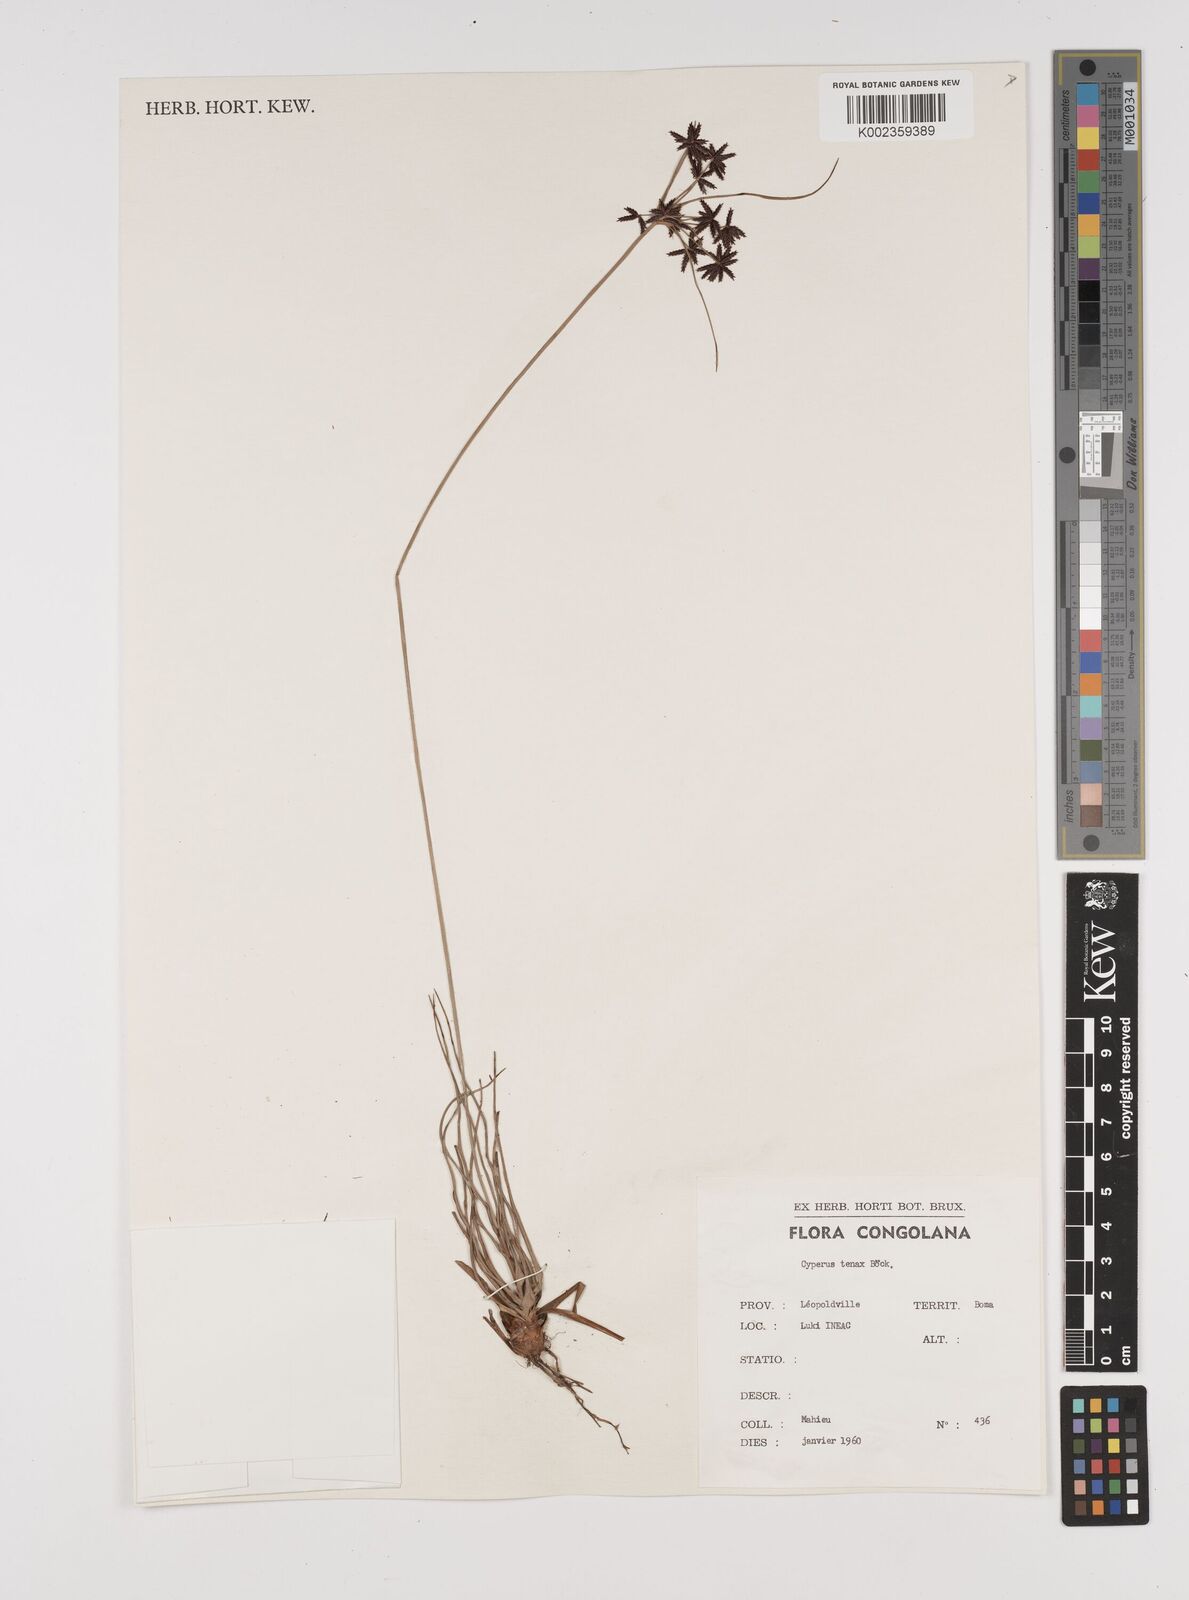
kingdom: Plantae
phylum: Tracheophyta
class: Liliopsida
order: Poales
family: Cyperaceae
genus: Cyperus
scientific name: Cyperus tenax
